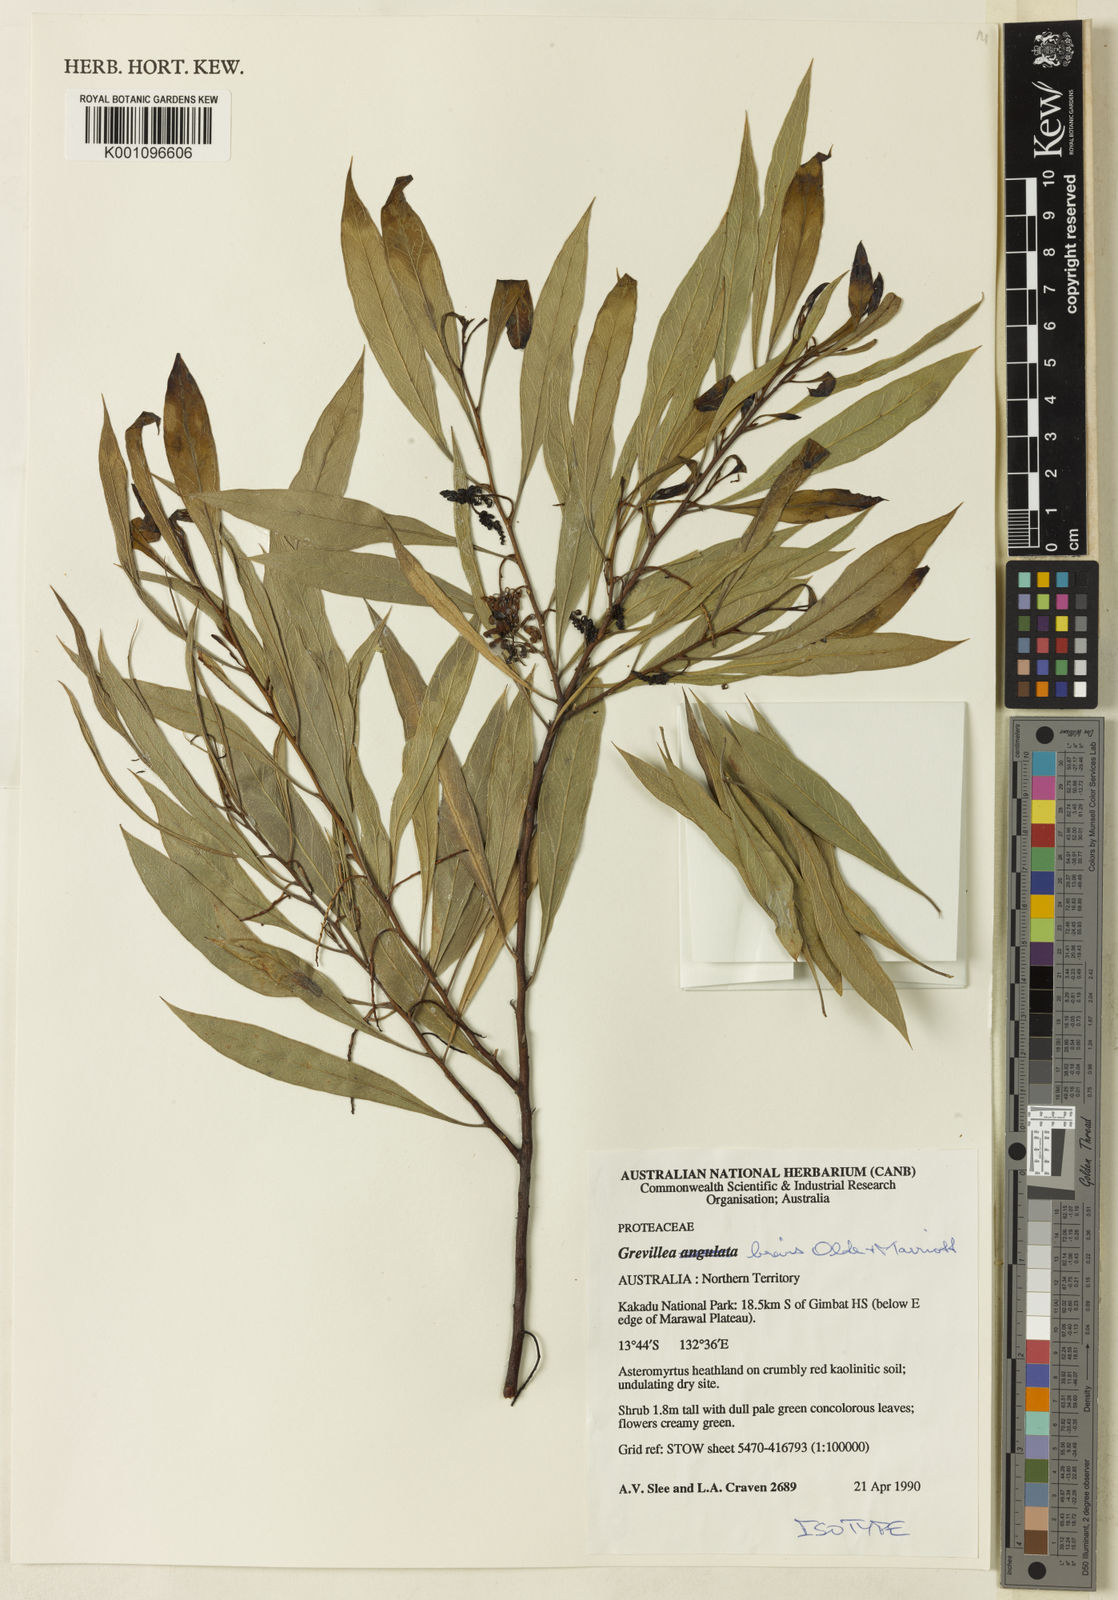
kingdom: Plantae
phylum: Tracheophyta
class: Magnoliopsida
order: Proteales
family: Proteaceae
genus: Grevillea
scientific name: Grevillea brevis
